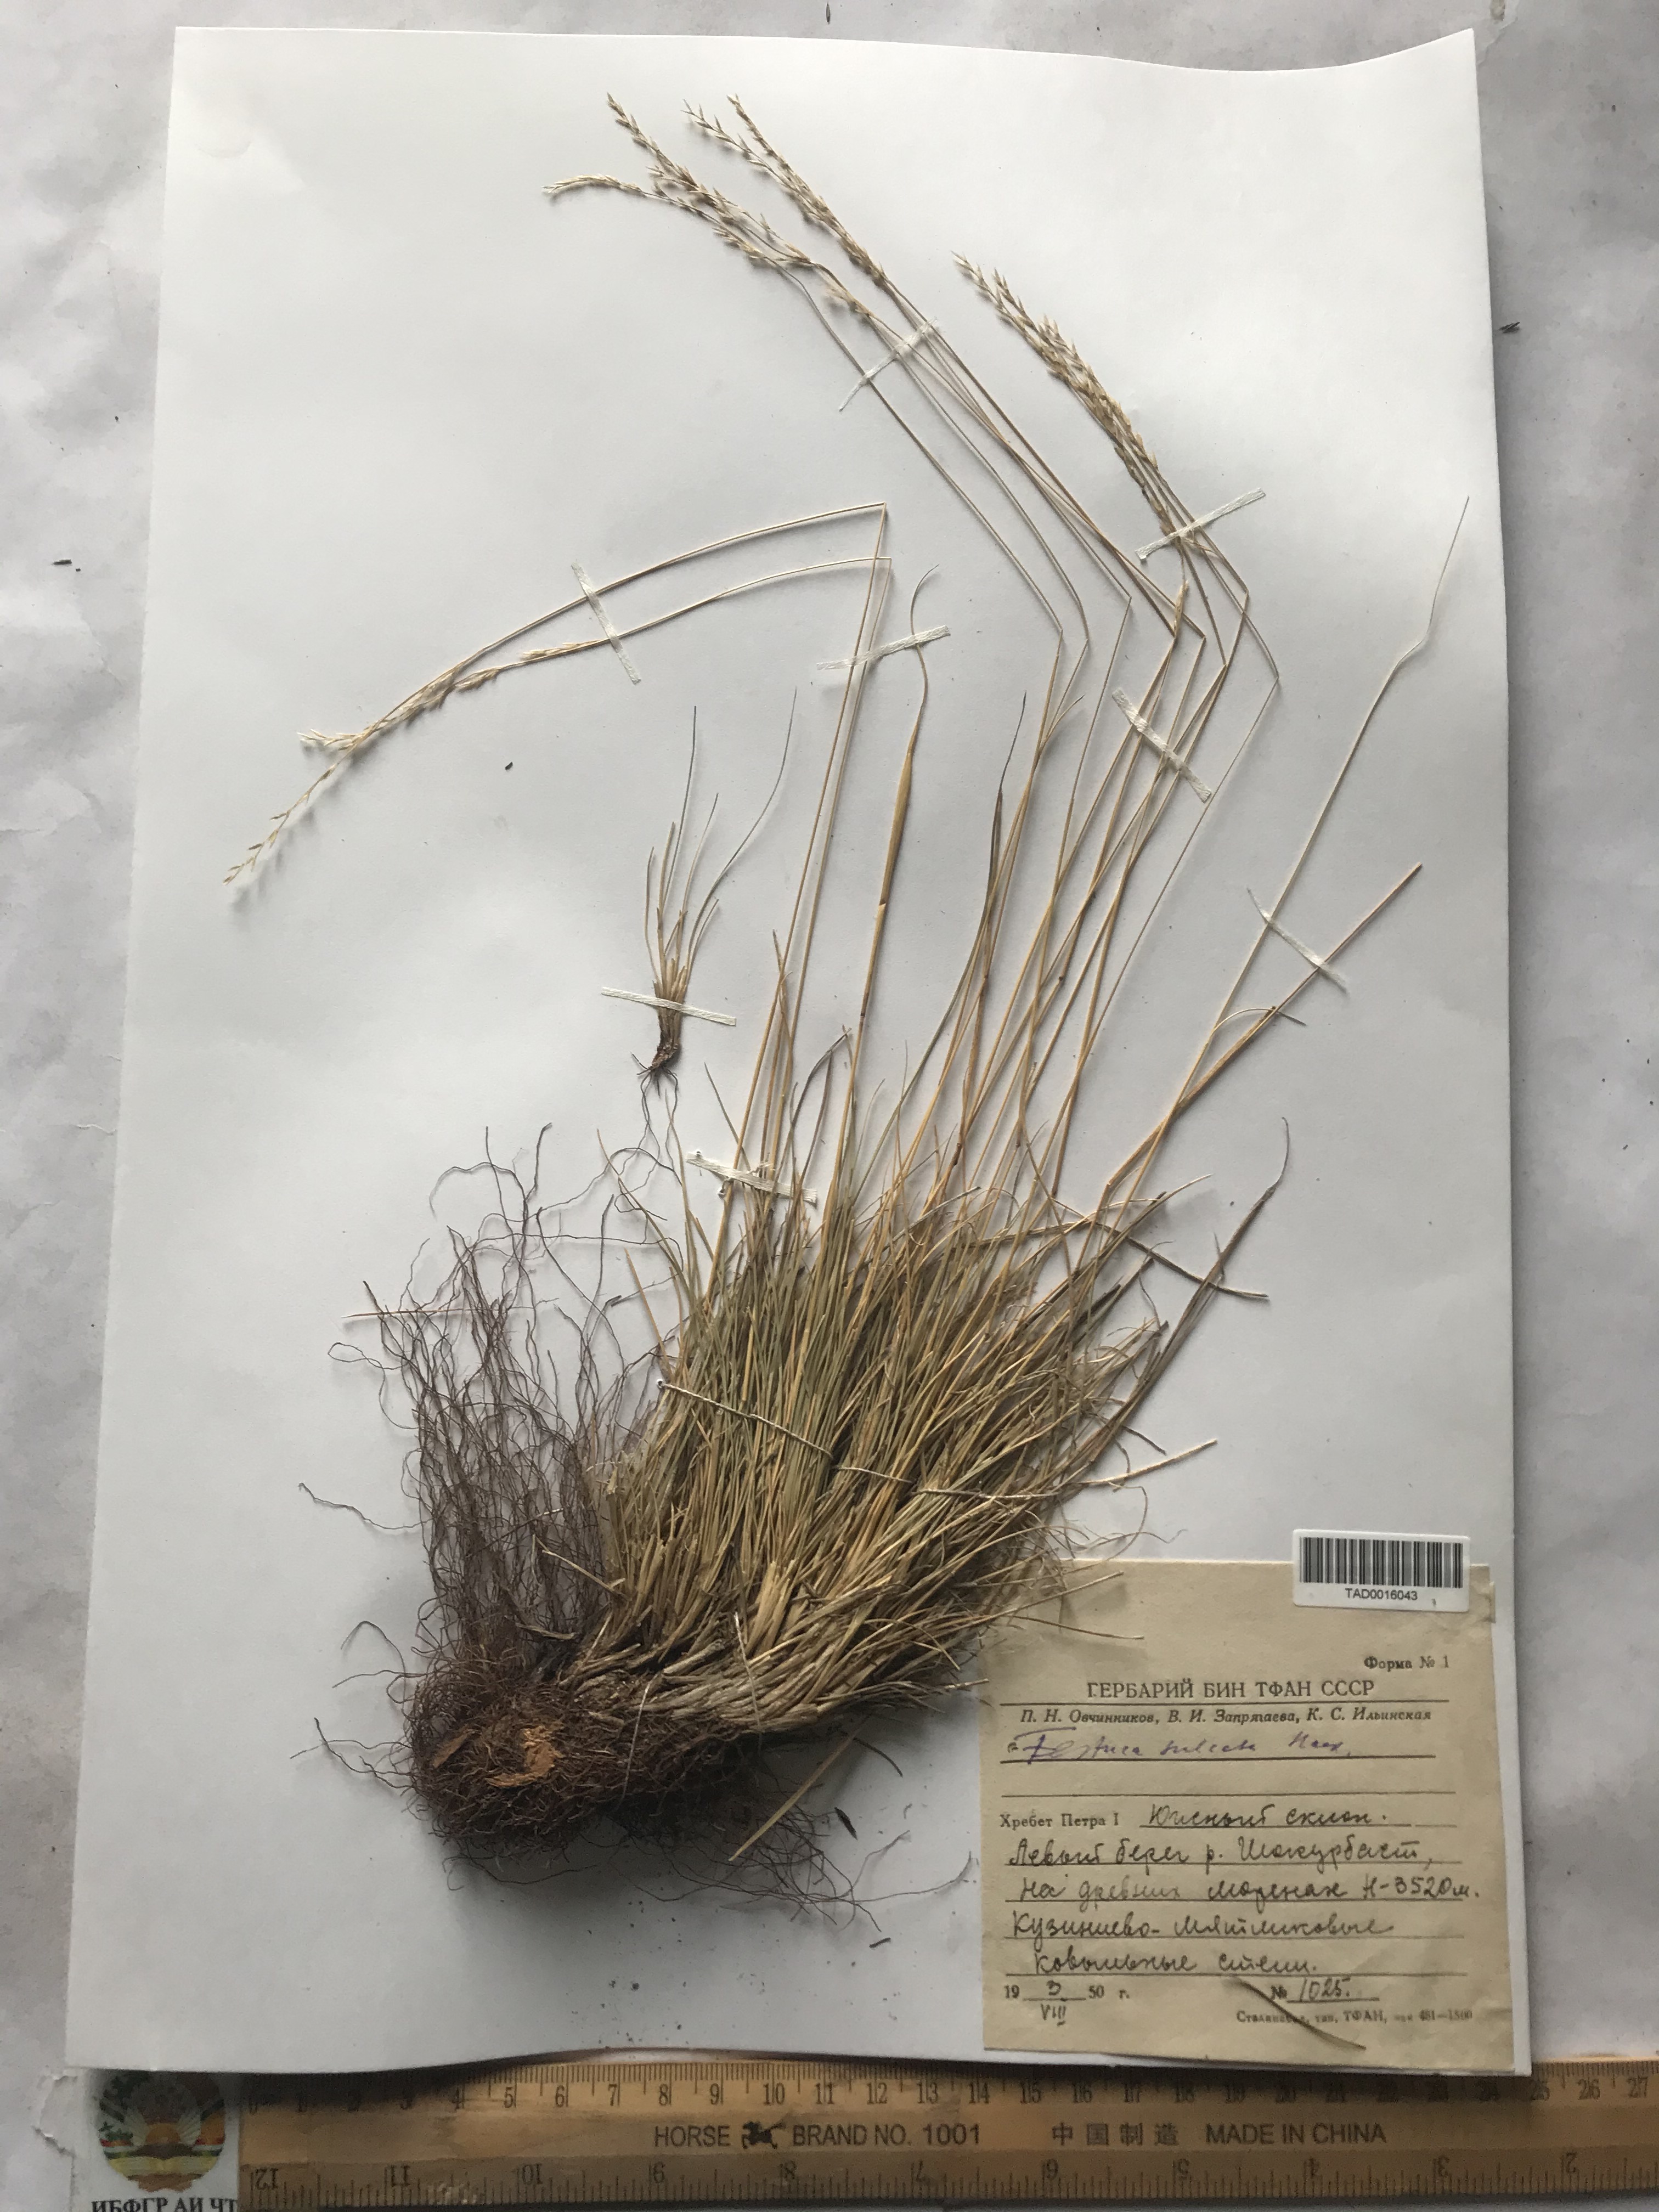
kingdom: Plantae
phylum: Tracheophyta
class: Liliopsida
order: Poales
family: Poaceae
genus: Festuca
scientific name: Festuca sulcata
